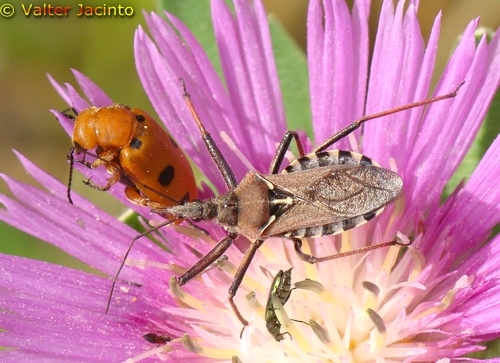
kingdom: Animalia
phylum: Arthropoda
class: Insecta
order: Hemiptera
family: Reduviidae
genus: Rhynocoris
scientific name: Rhynocoris erythropus
